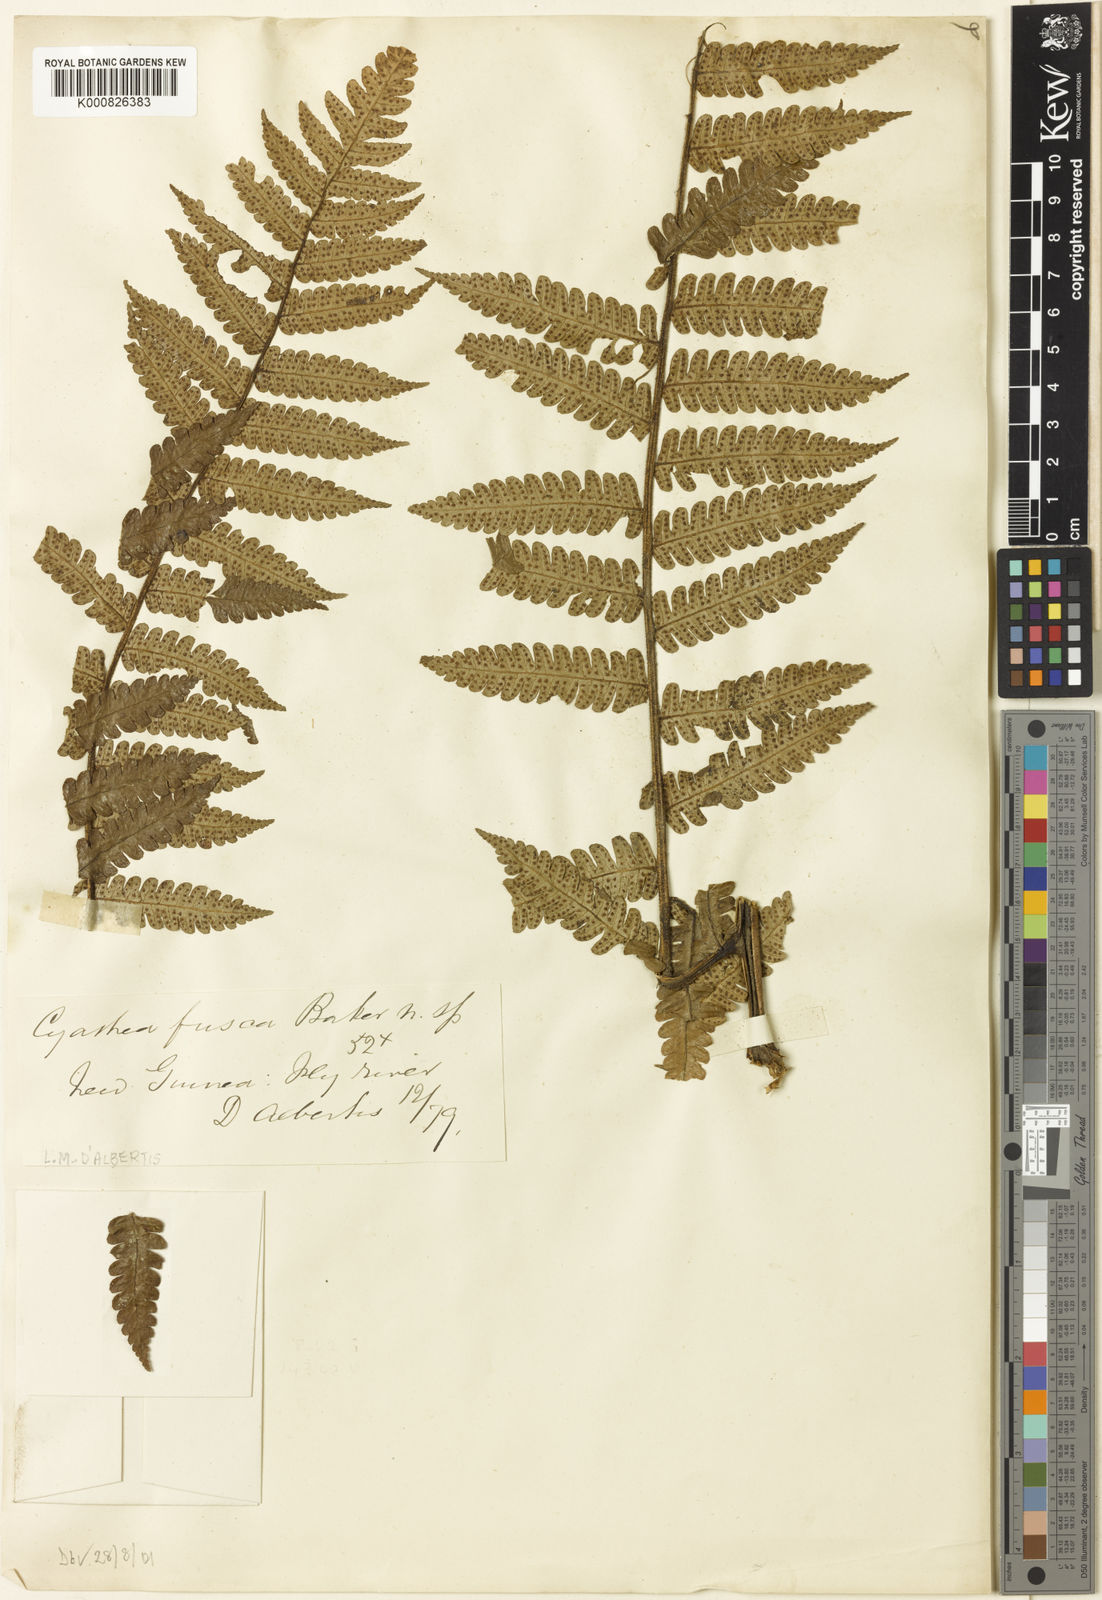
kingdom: Plantae
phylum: Tracheophyta
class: Polypodiopsida
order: Cyatheales
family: Cyatheaceae
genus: Sphaeropteris
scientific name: Sphaeropteris fusca
